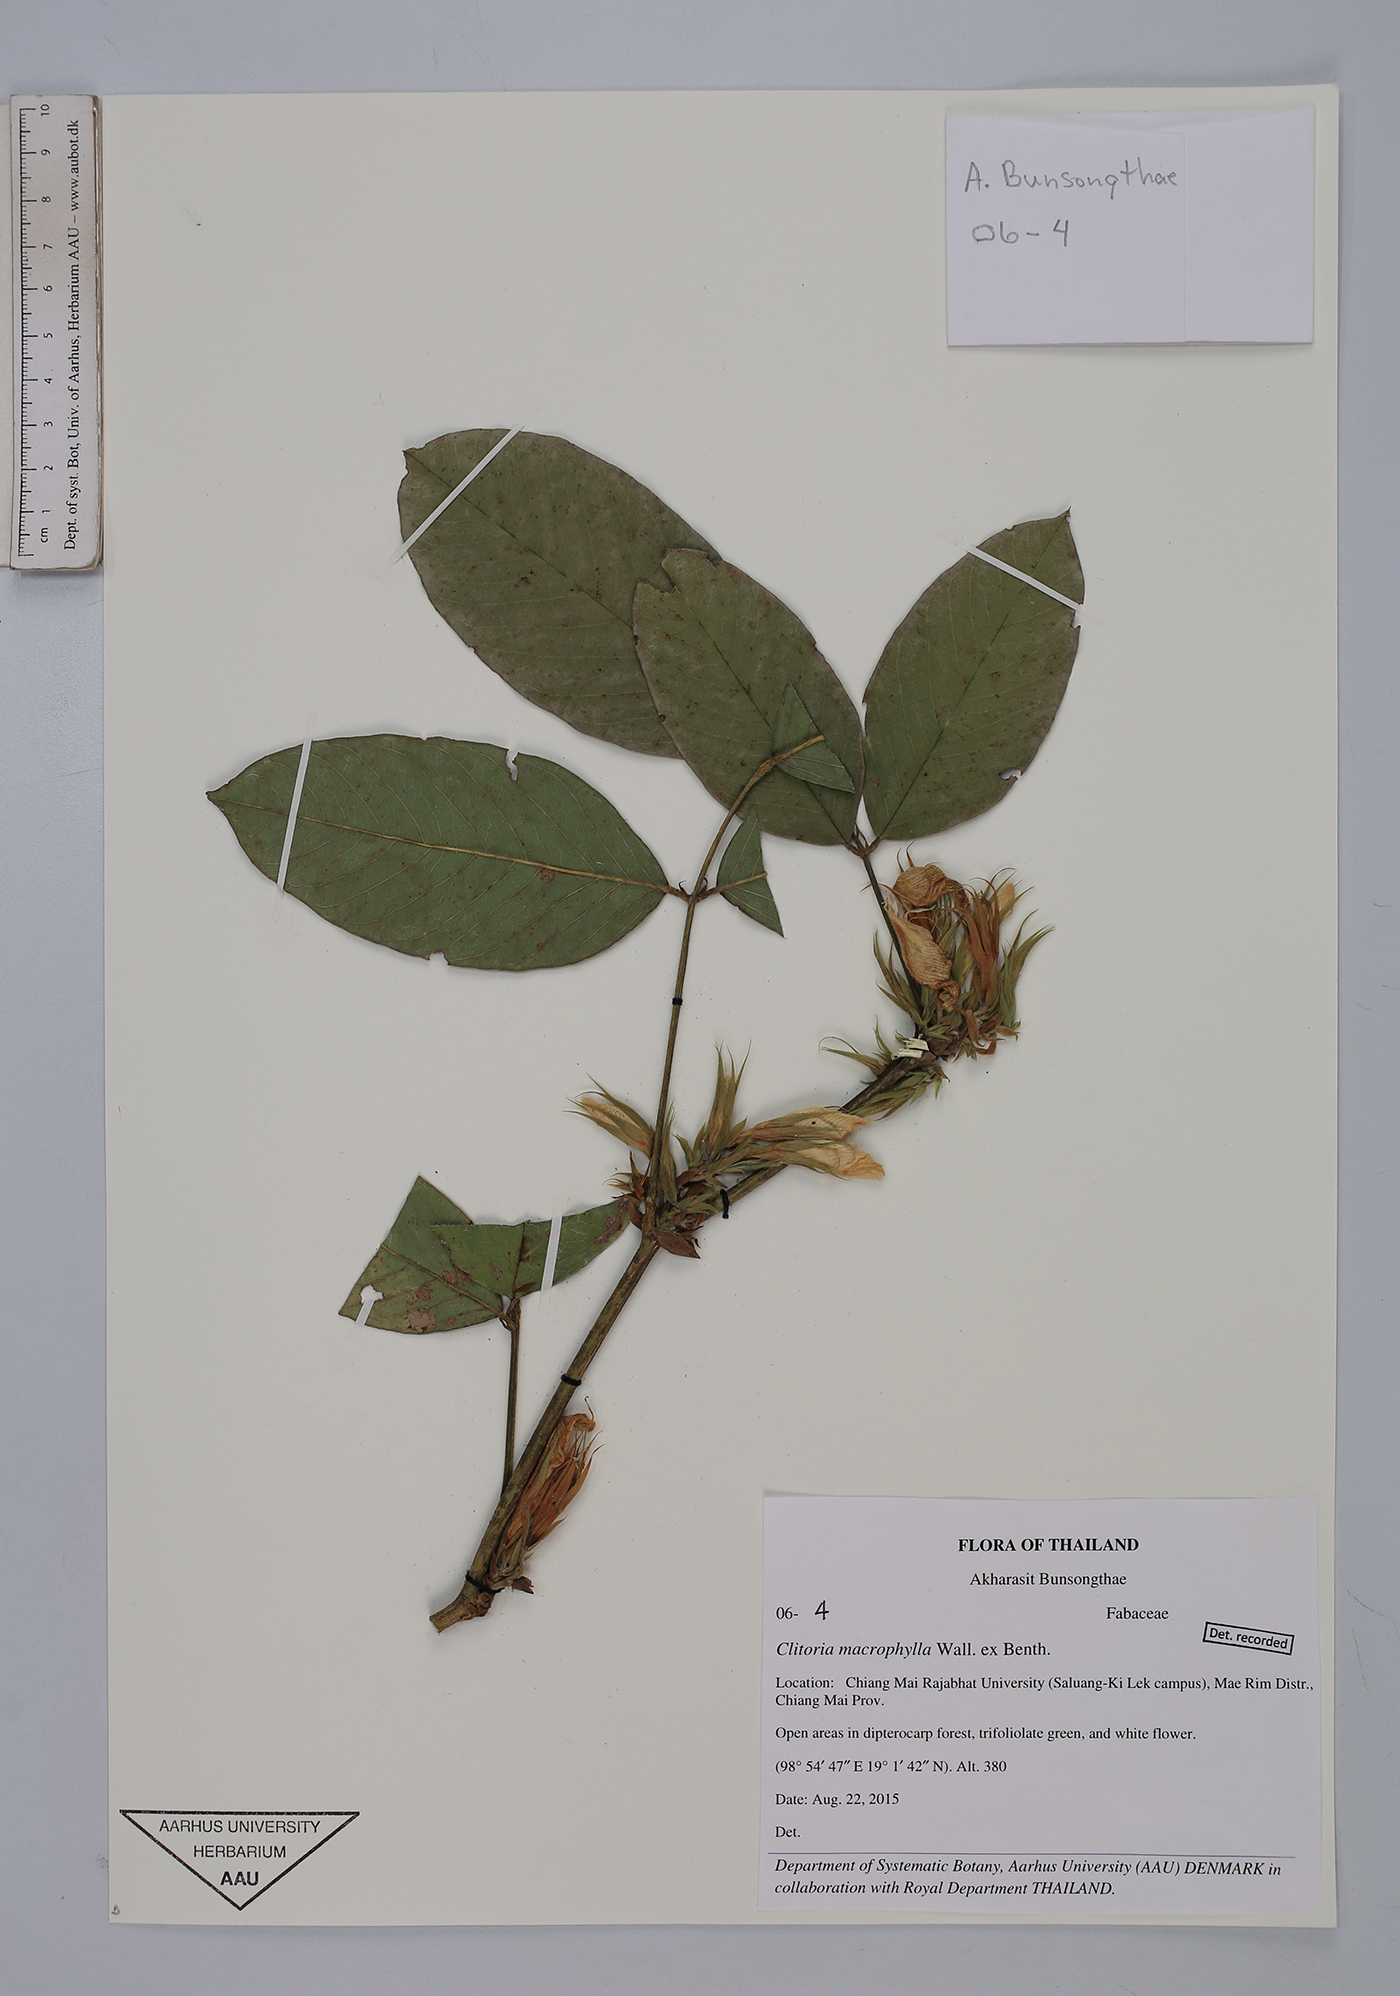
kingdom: Plantae
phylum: Tracheophyta
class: Magnoliopsida
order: Fabales
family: Fabaceae
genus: Clitoria
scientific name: Clitoria macrophylla
